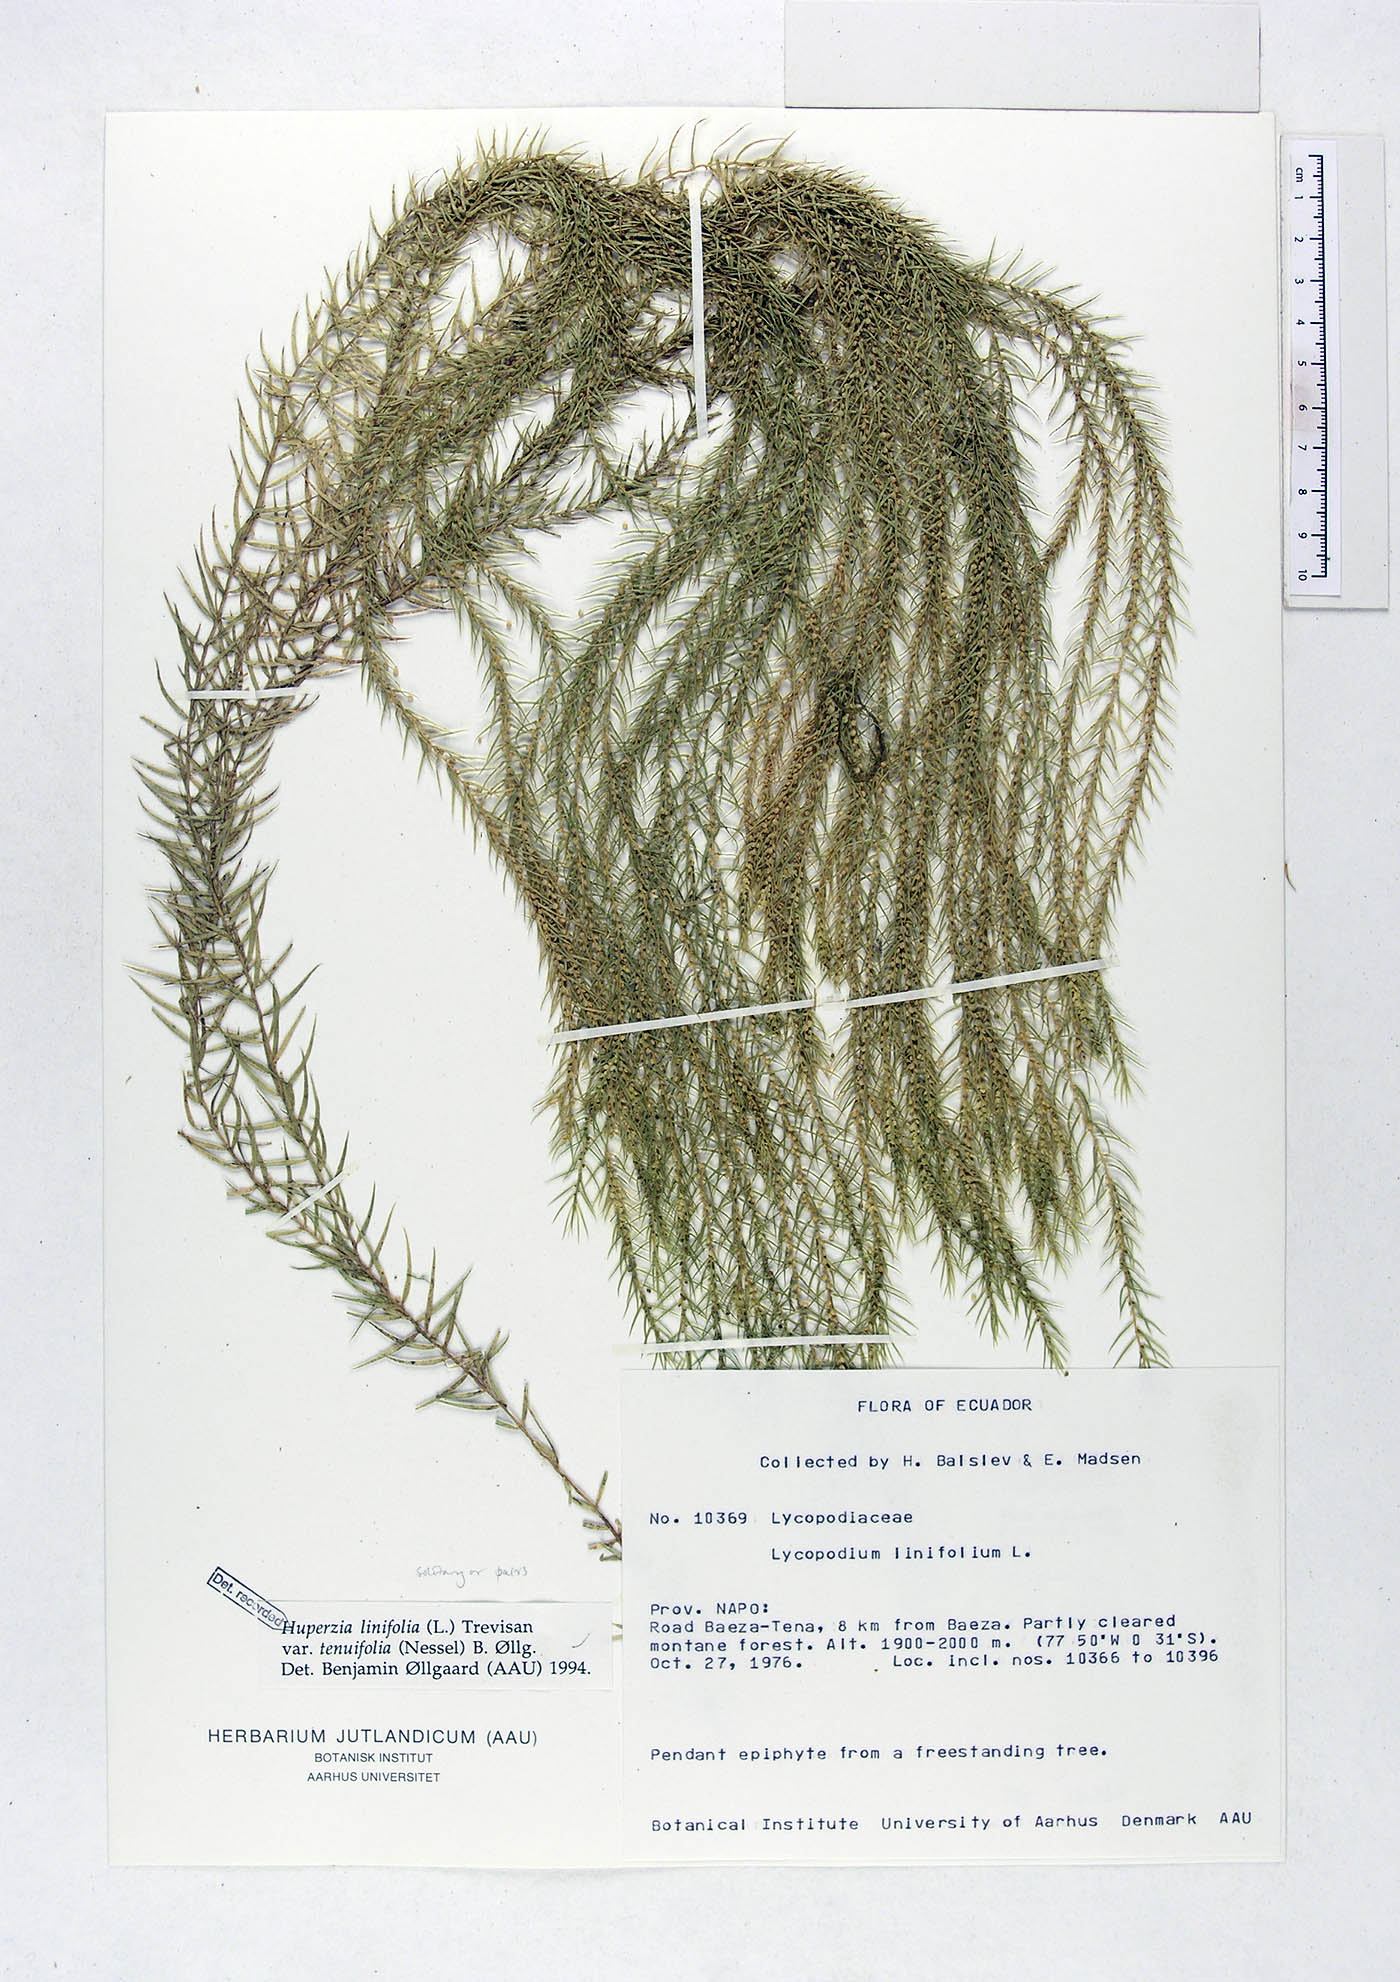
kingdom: Plantae
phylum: Tracheophyta
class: Lycopodiopsida
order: Lycopodiales
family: Lycopodiaceae
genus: Phlegmariurus
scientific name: Phlegmariurus linifolius
